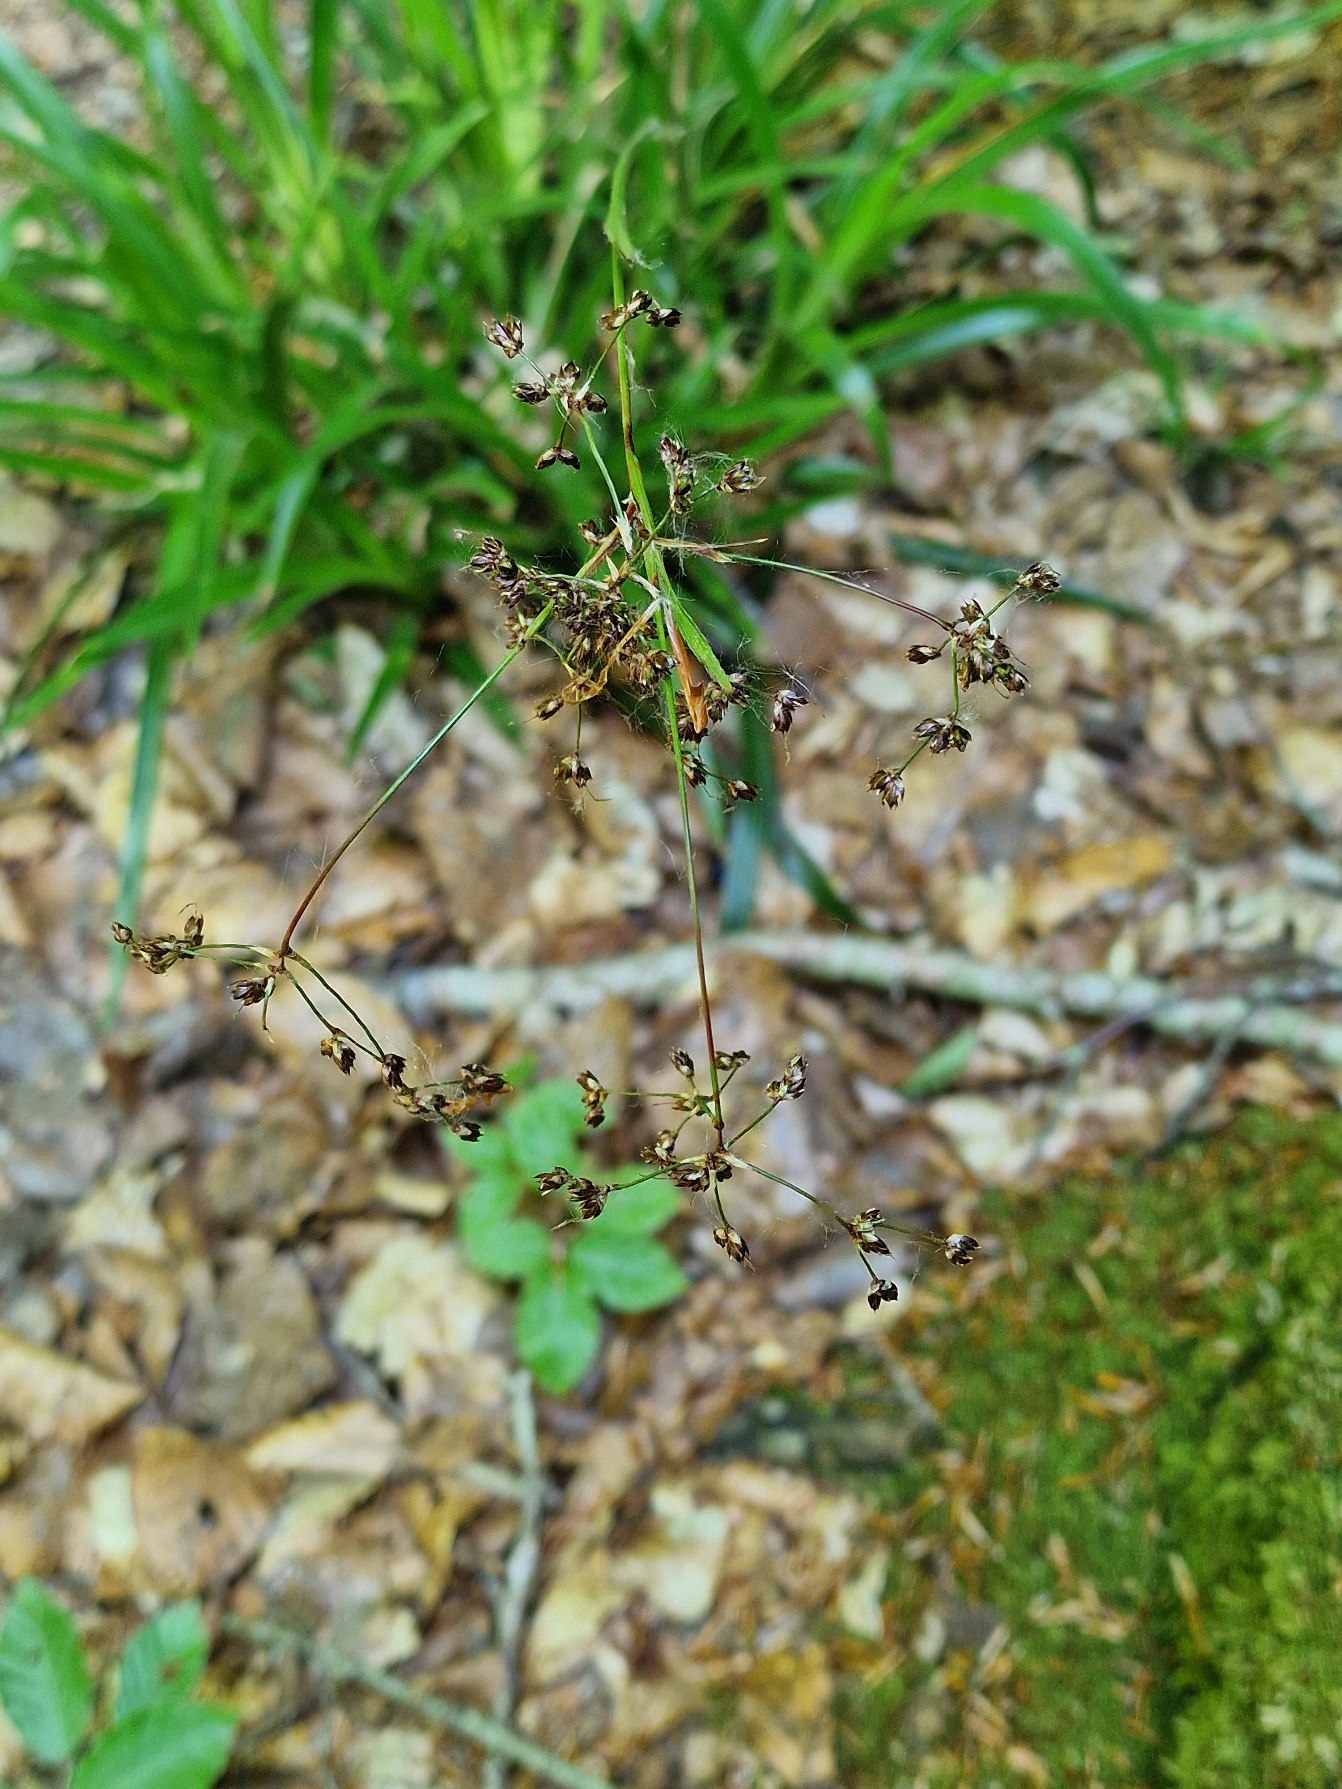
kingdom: Plantae
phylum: Tracheophyta
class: Liliopsida
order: Poales
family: Juncaceae
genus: Luzula
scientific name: Luzula sylvatica
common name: Stor frytle
